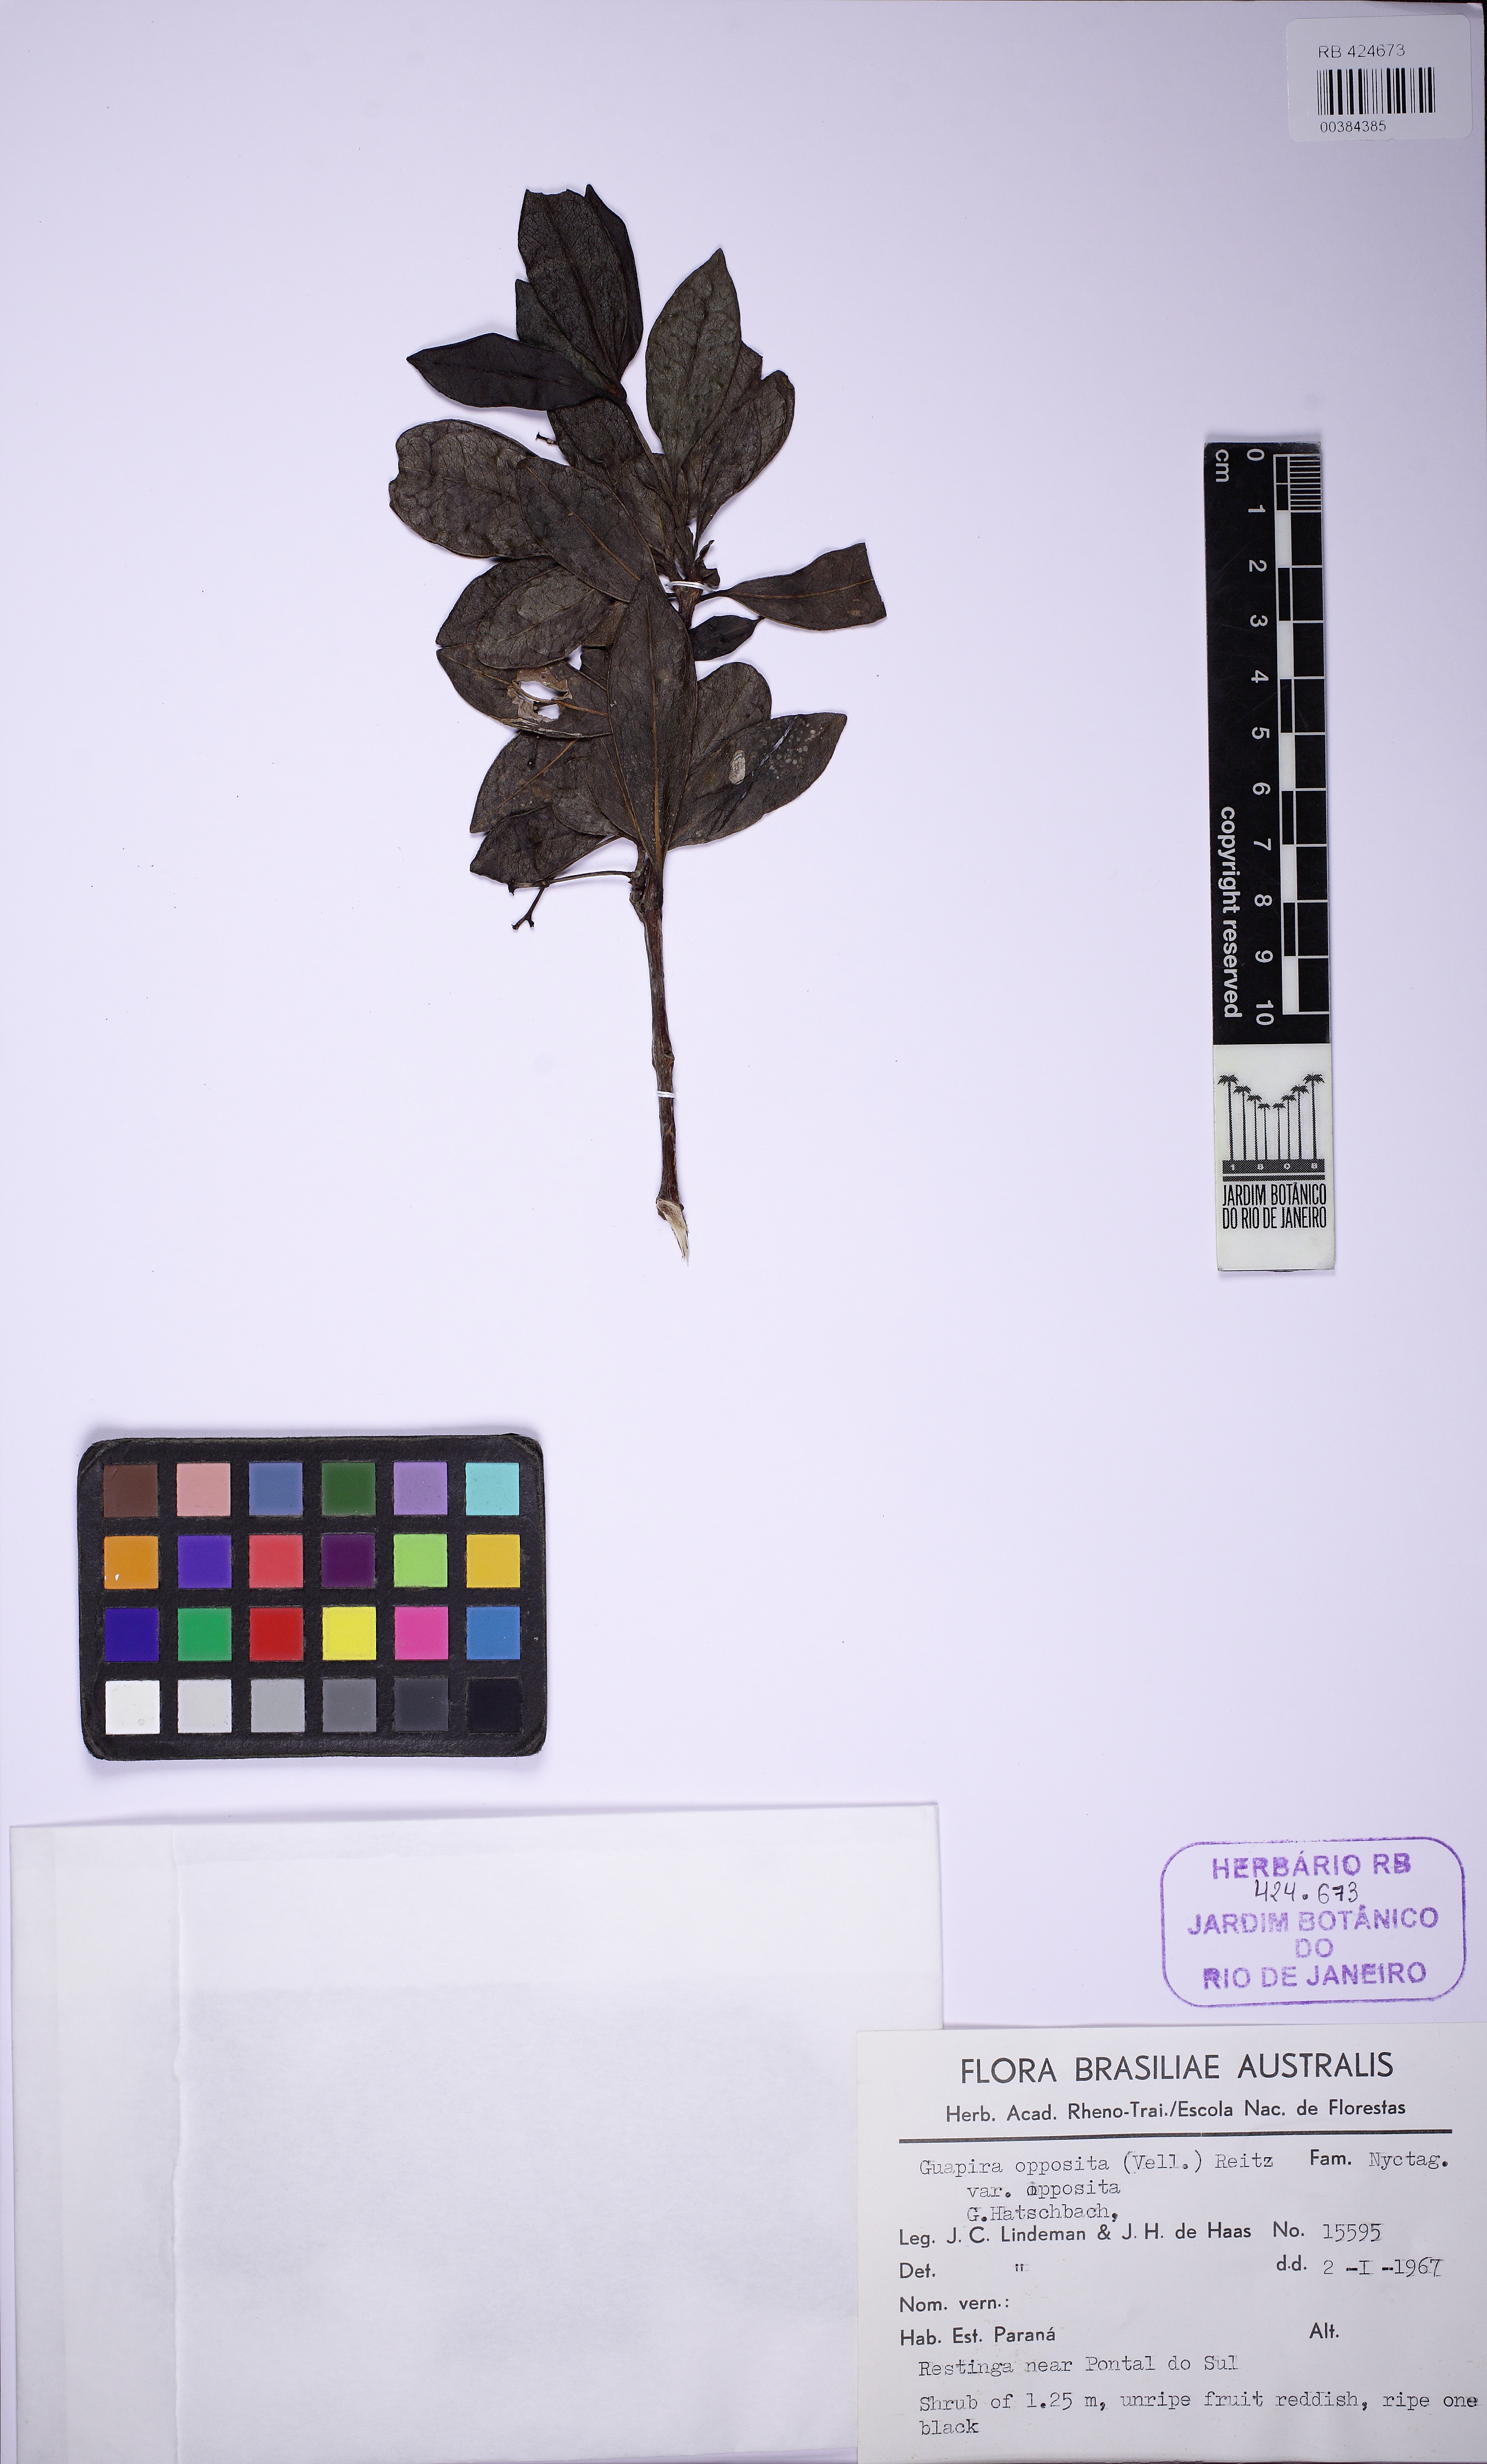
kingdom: Plantae
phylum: Tracheophyta
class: Magnoliopsida
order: Caryophyllales
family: Nyctaginaceae
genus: Guapira
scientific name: Guapira opposita
